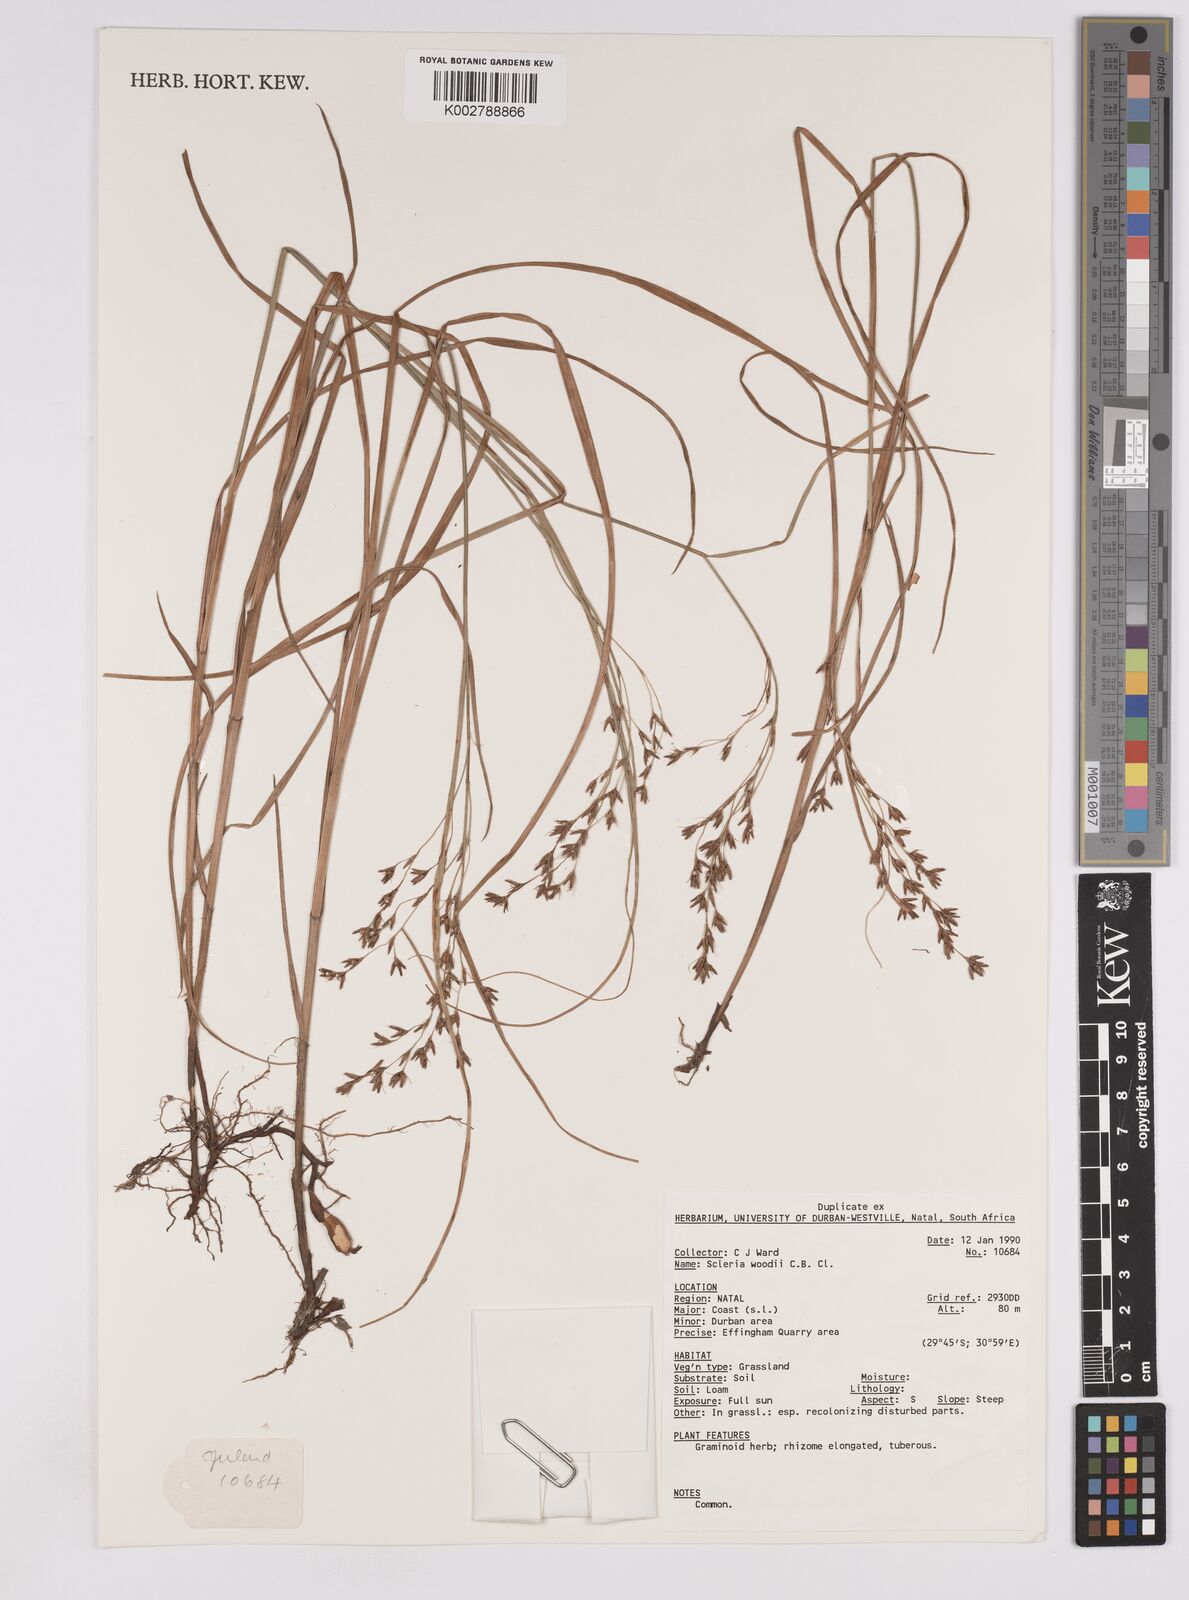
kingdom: Plantae
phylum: Tracheophyta
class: Liliopsida
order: Poales
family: Cyperaceae
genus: Scleria
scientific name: Scleria woodii
